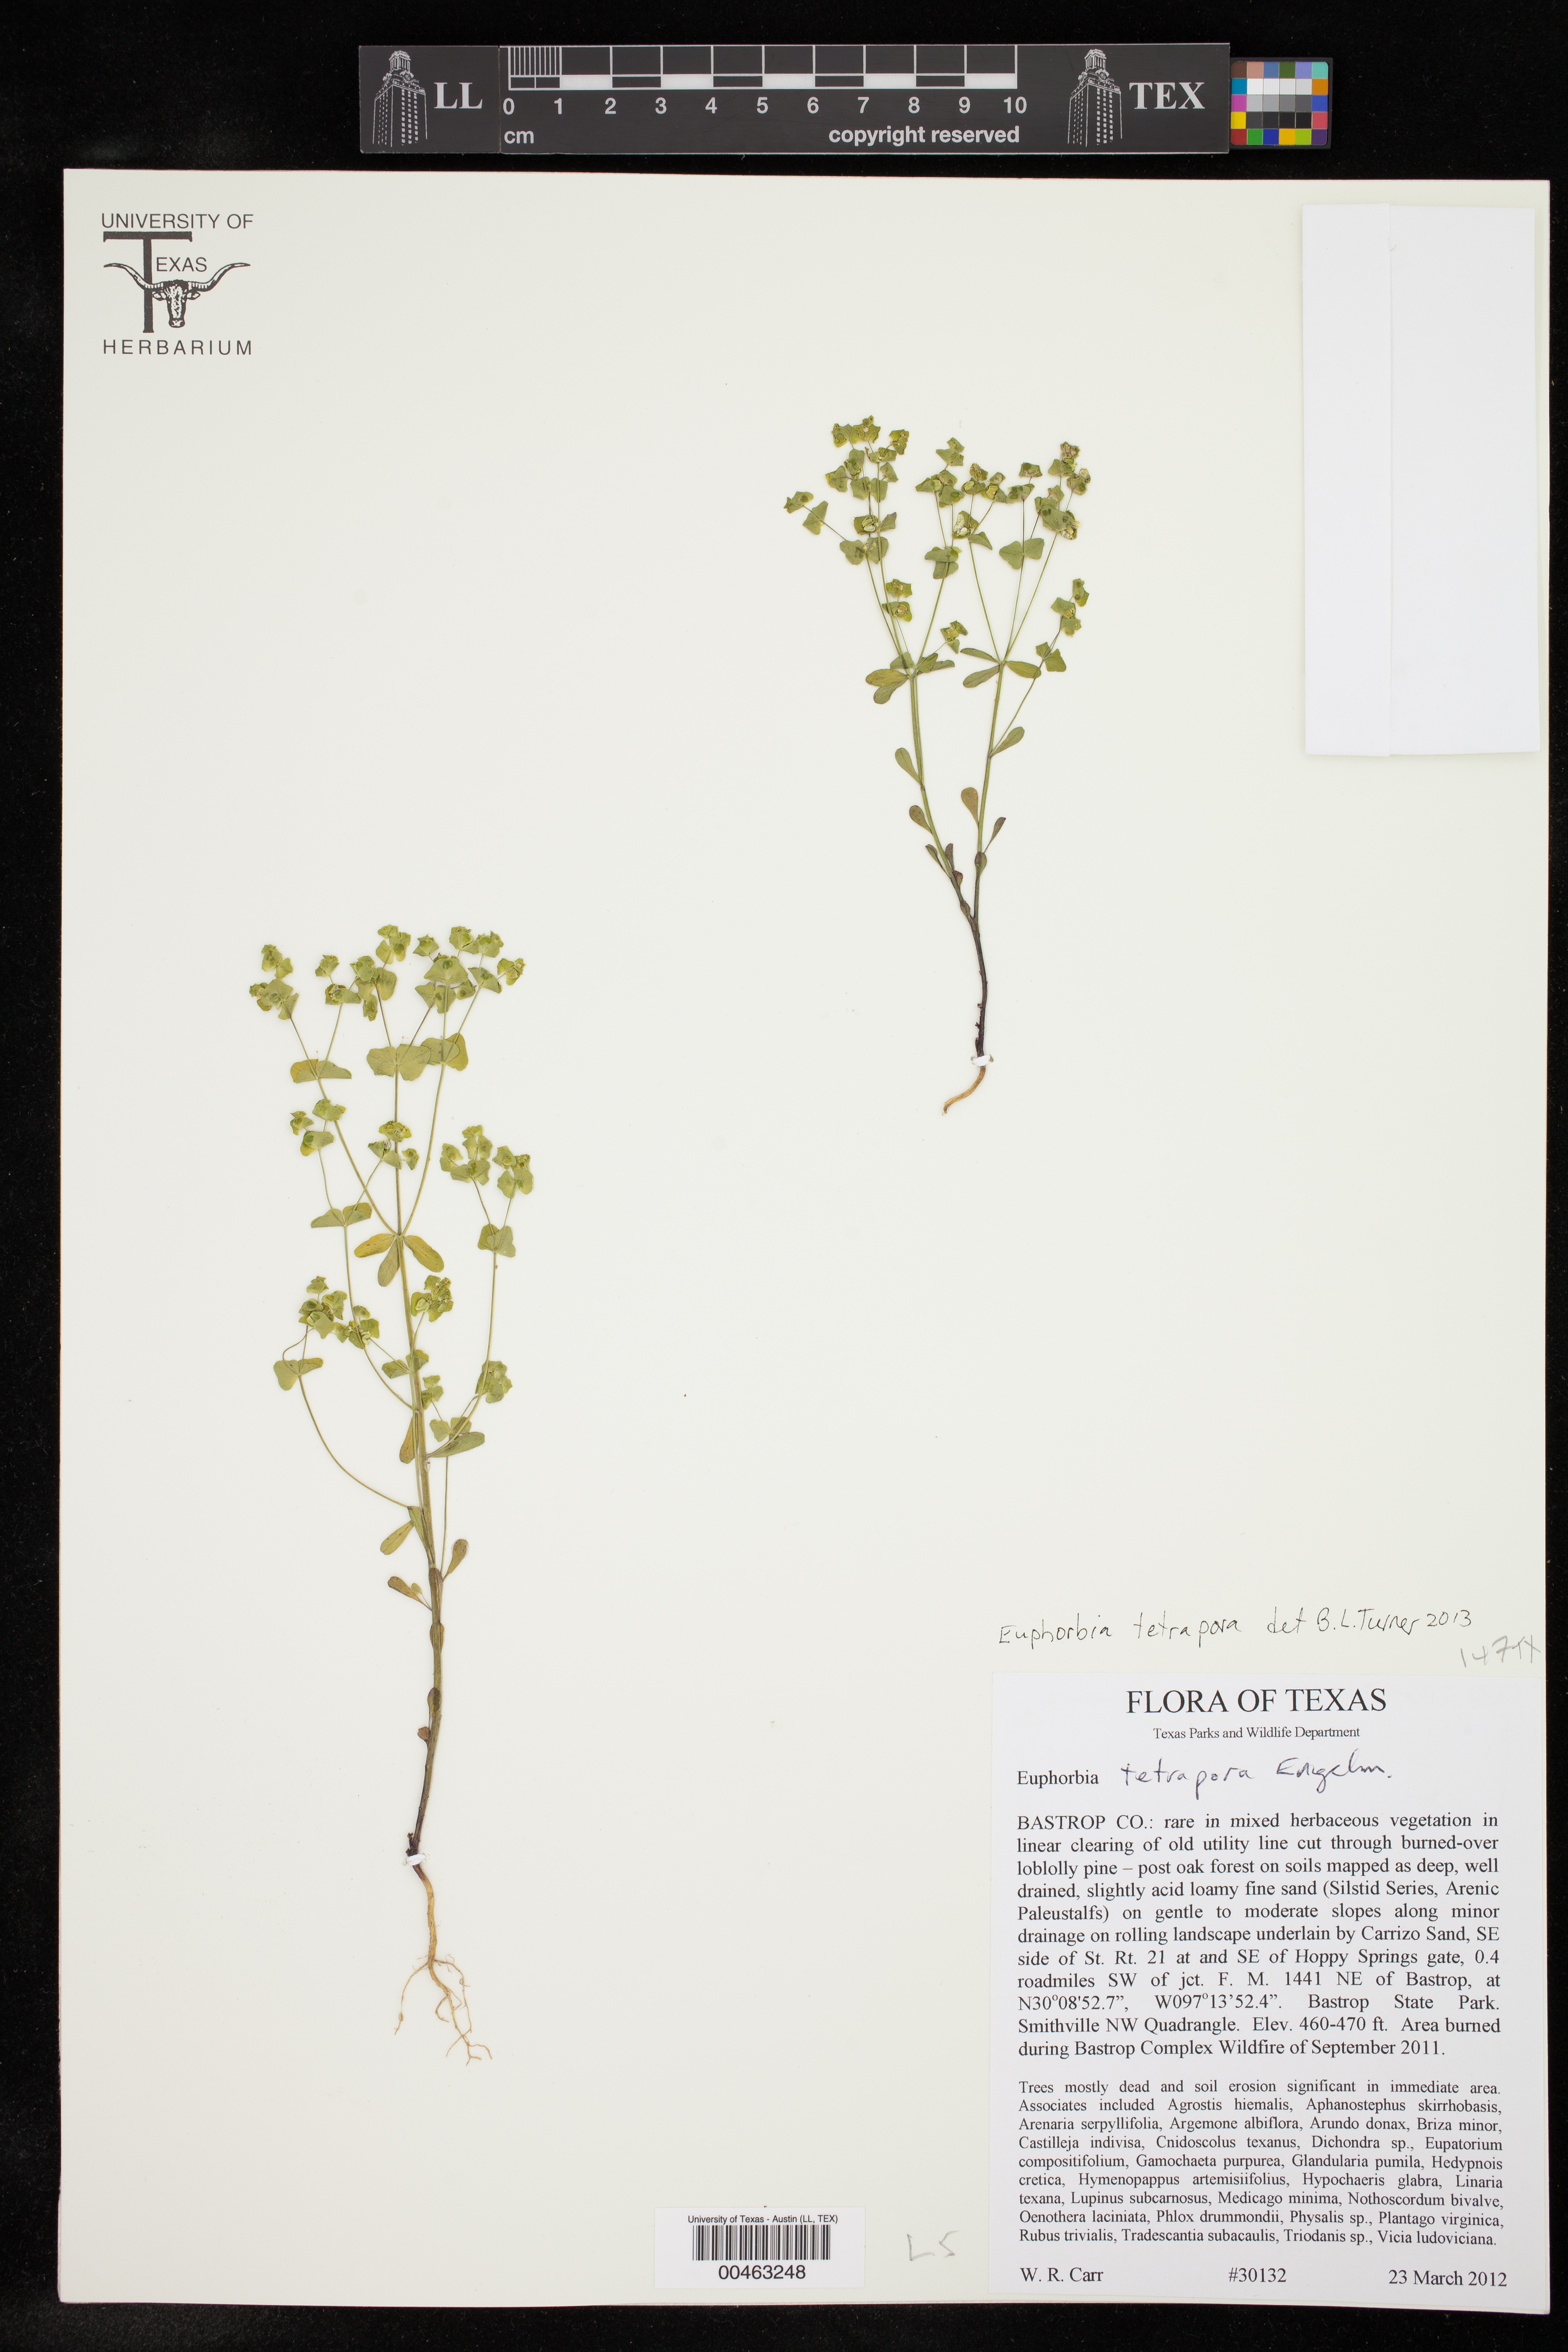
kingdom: Plantae
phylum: Tracheophyta
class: Magnoliopsida
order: Malpighiales
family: Euphorbiaceae
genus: Euphorbia
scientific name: Euphorbia tetrapora
